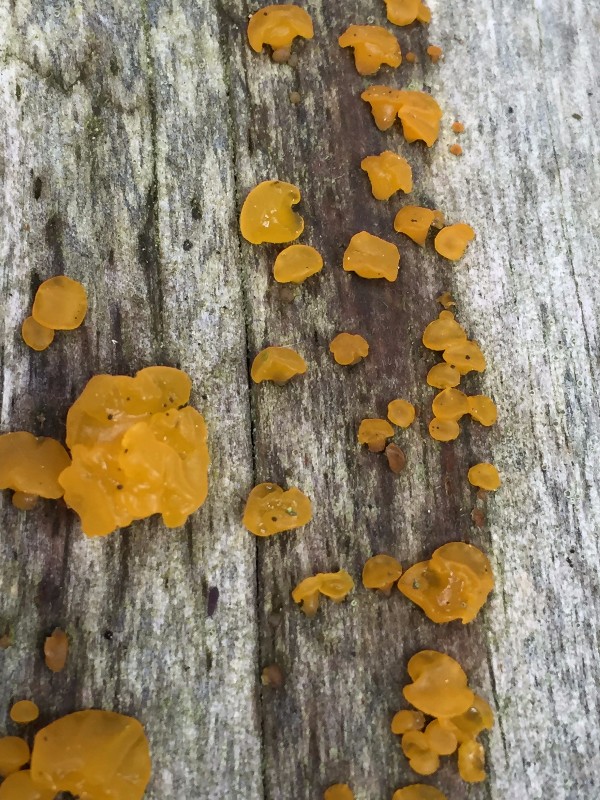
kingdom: Fungi
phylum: Basidiomycota
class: Dacrymycetes
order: Dacrymycetales
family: Dacrymycetaceae
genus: Dacrymyces
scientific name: Dacrymyces
